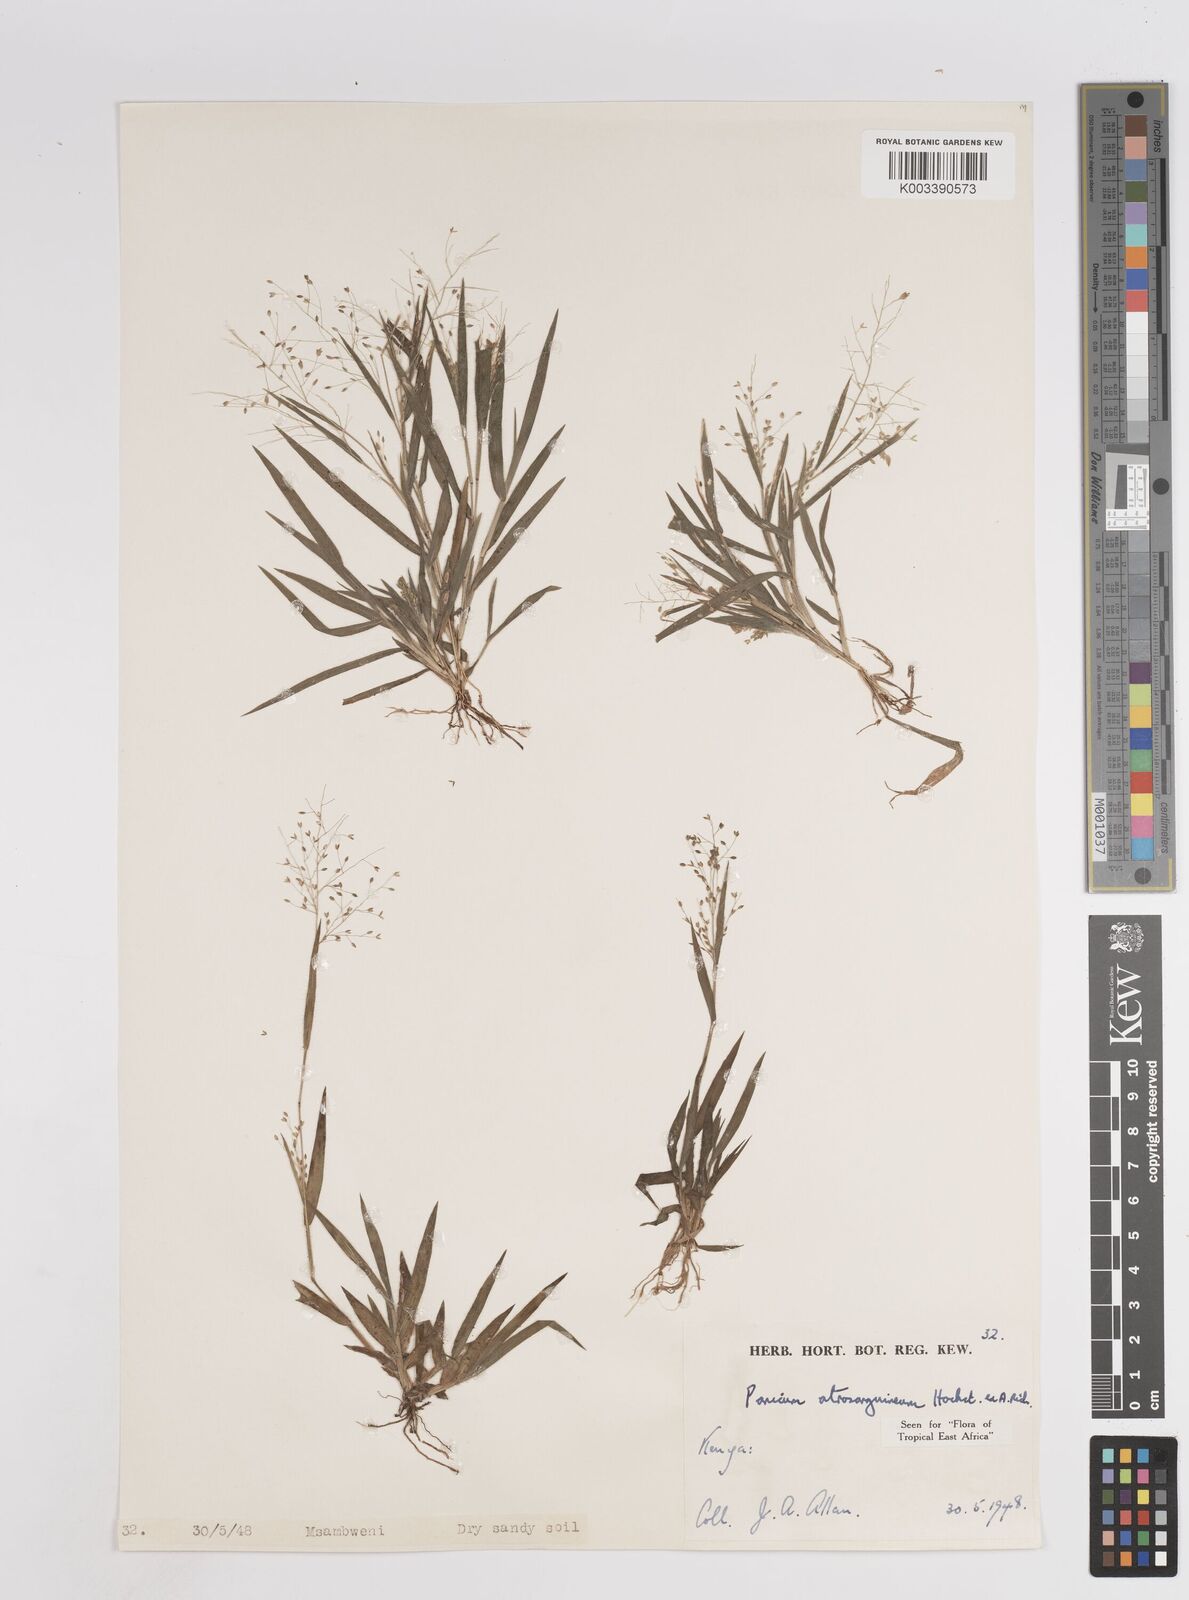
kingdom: Plantae
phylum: Tracheophyta
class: Liliopsida
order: Poales
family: Poaceae
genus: Panicum
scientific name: Panicum atrosanguineum
